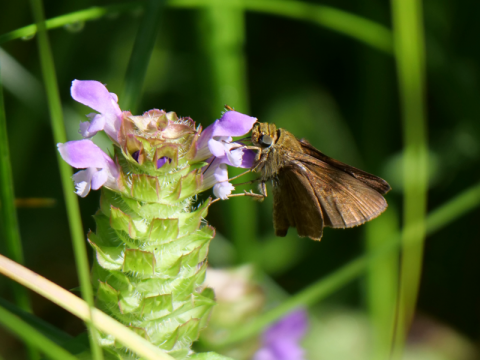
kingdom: Animalia
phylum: Arthropoda
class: Insecta
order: Lepidoptera
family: Hesperiidae
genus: Euphyes
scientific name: Euphyes vestris
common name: Dun Skipper
